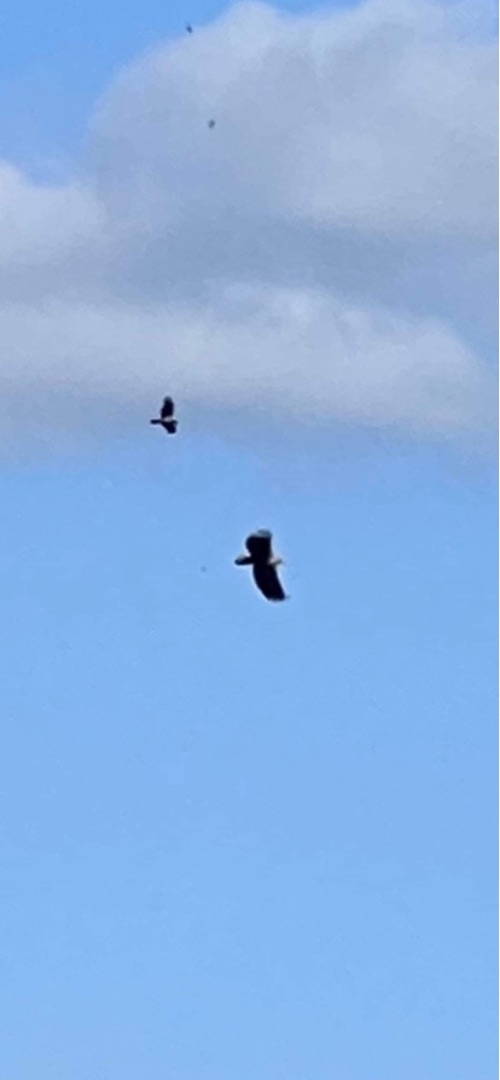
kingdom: Animalia
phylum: Chordata
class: Aves
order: Accipitriformes
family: Accipitridae
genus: Haliaeetus
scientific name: Haliaeetus albicilla
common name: Havørn
